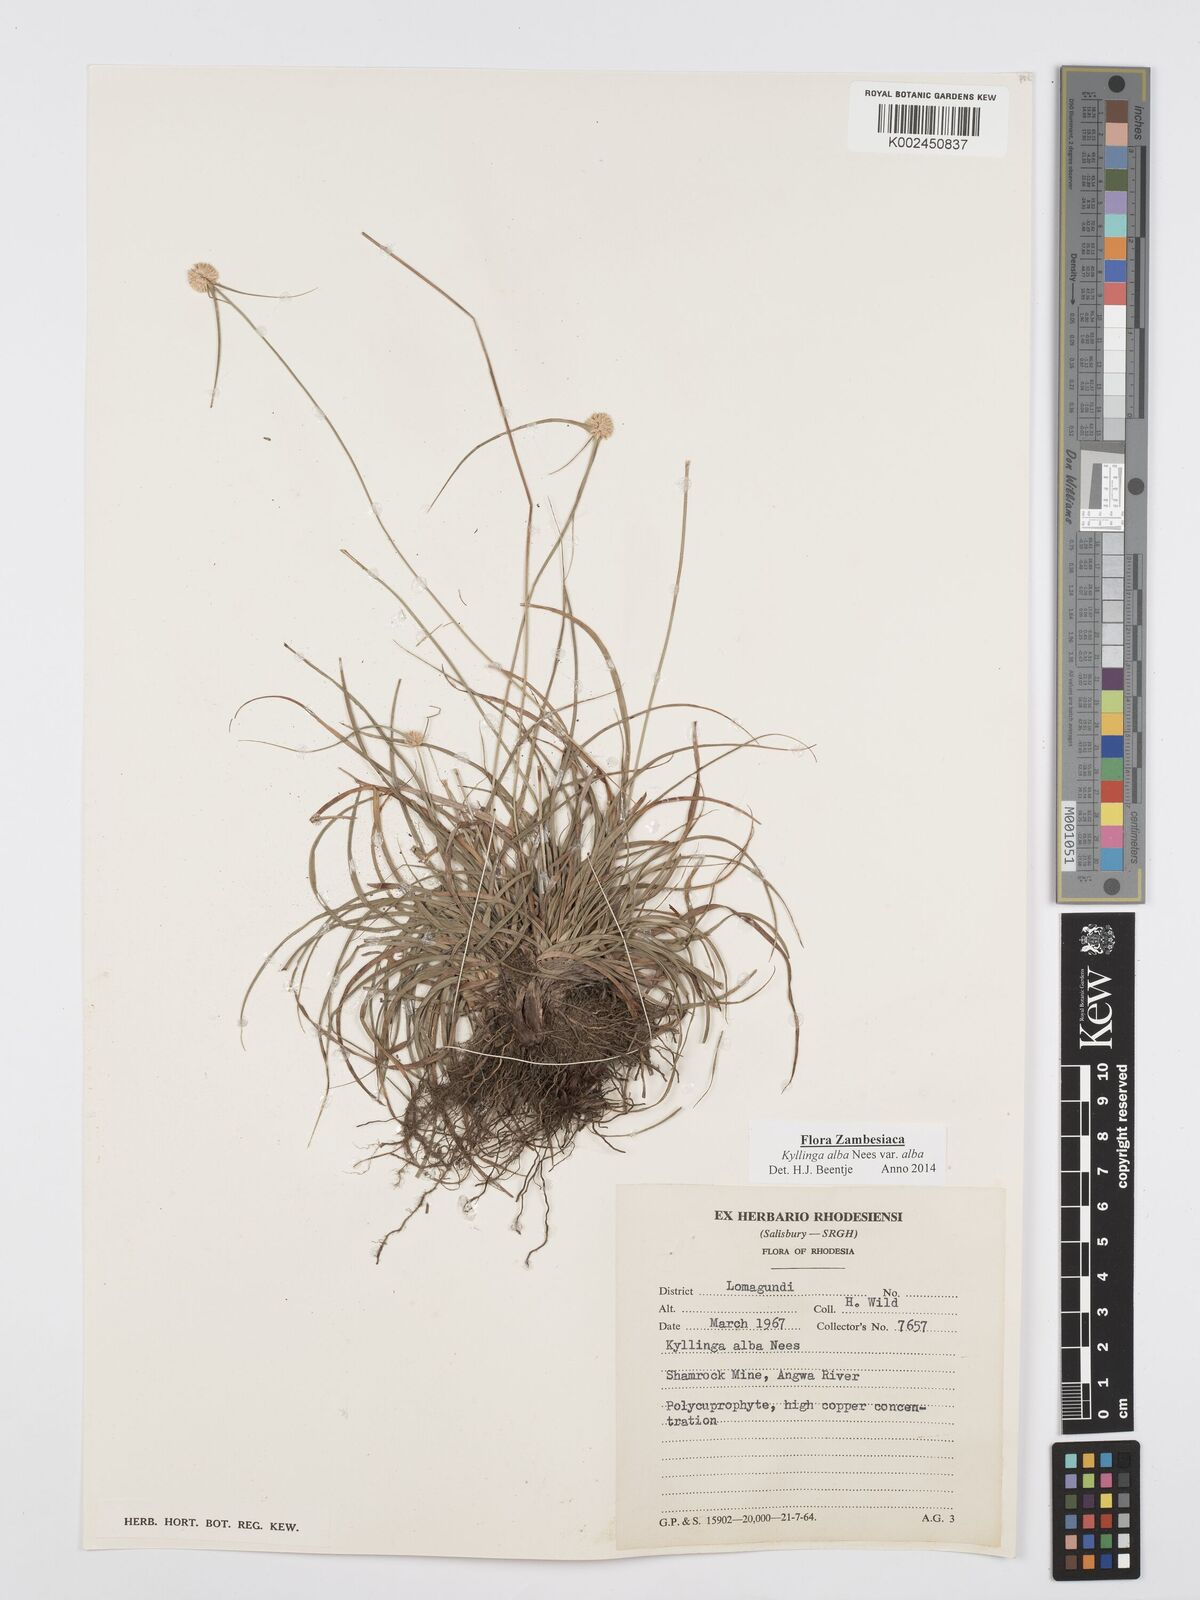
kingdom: Plantae
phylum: Tracheophyta
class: Liliopsida
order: Poales
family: Cyperaceae
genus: Cyperus
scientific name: Cyperus
